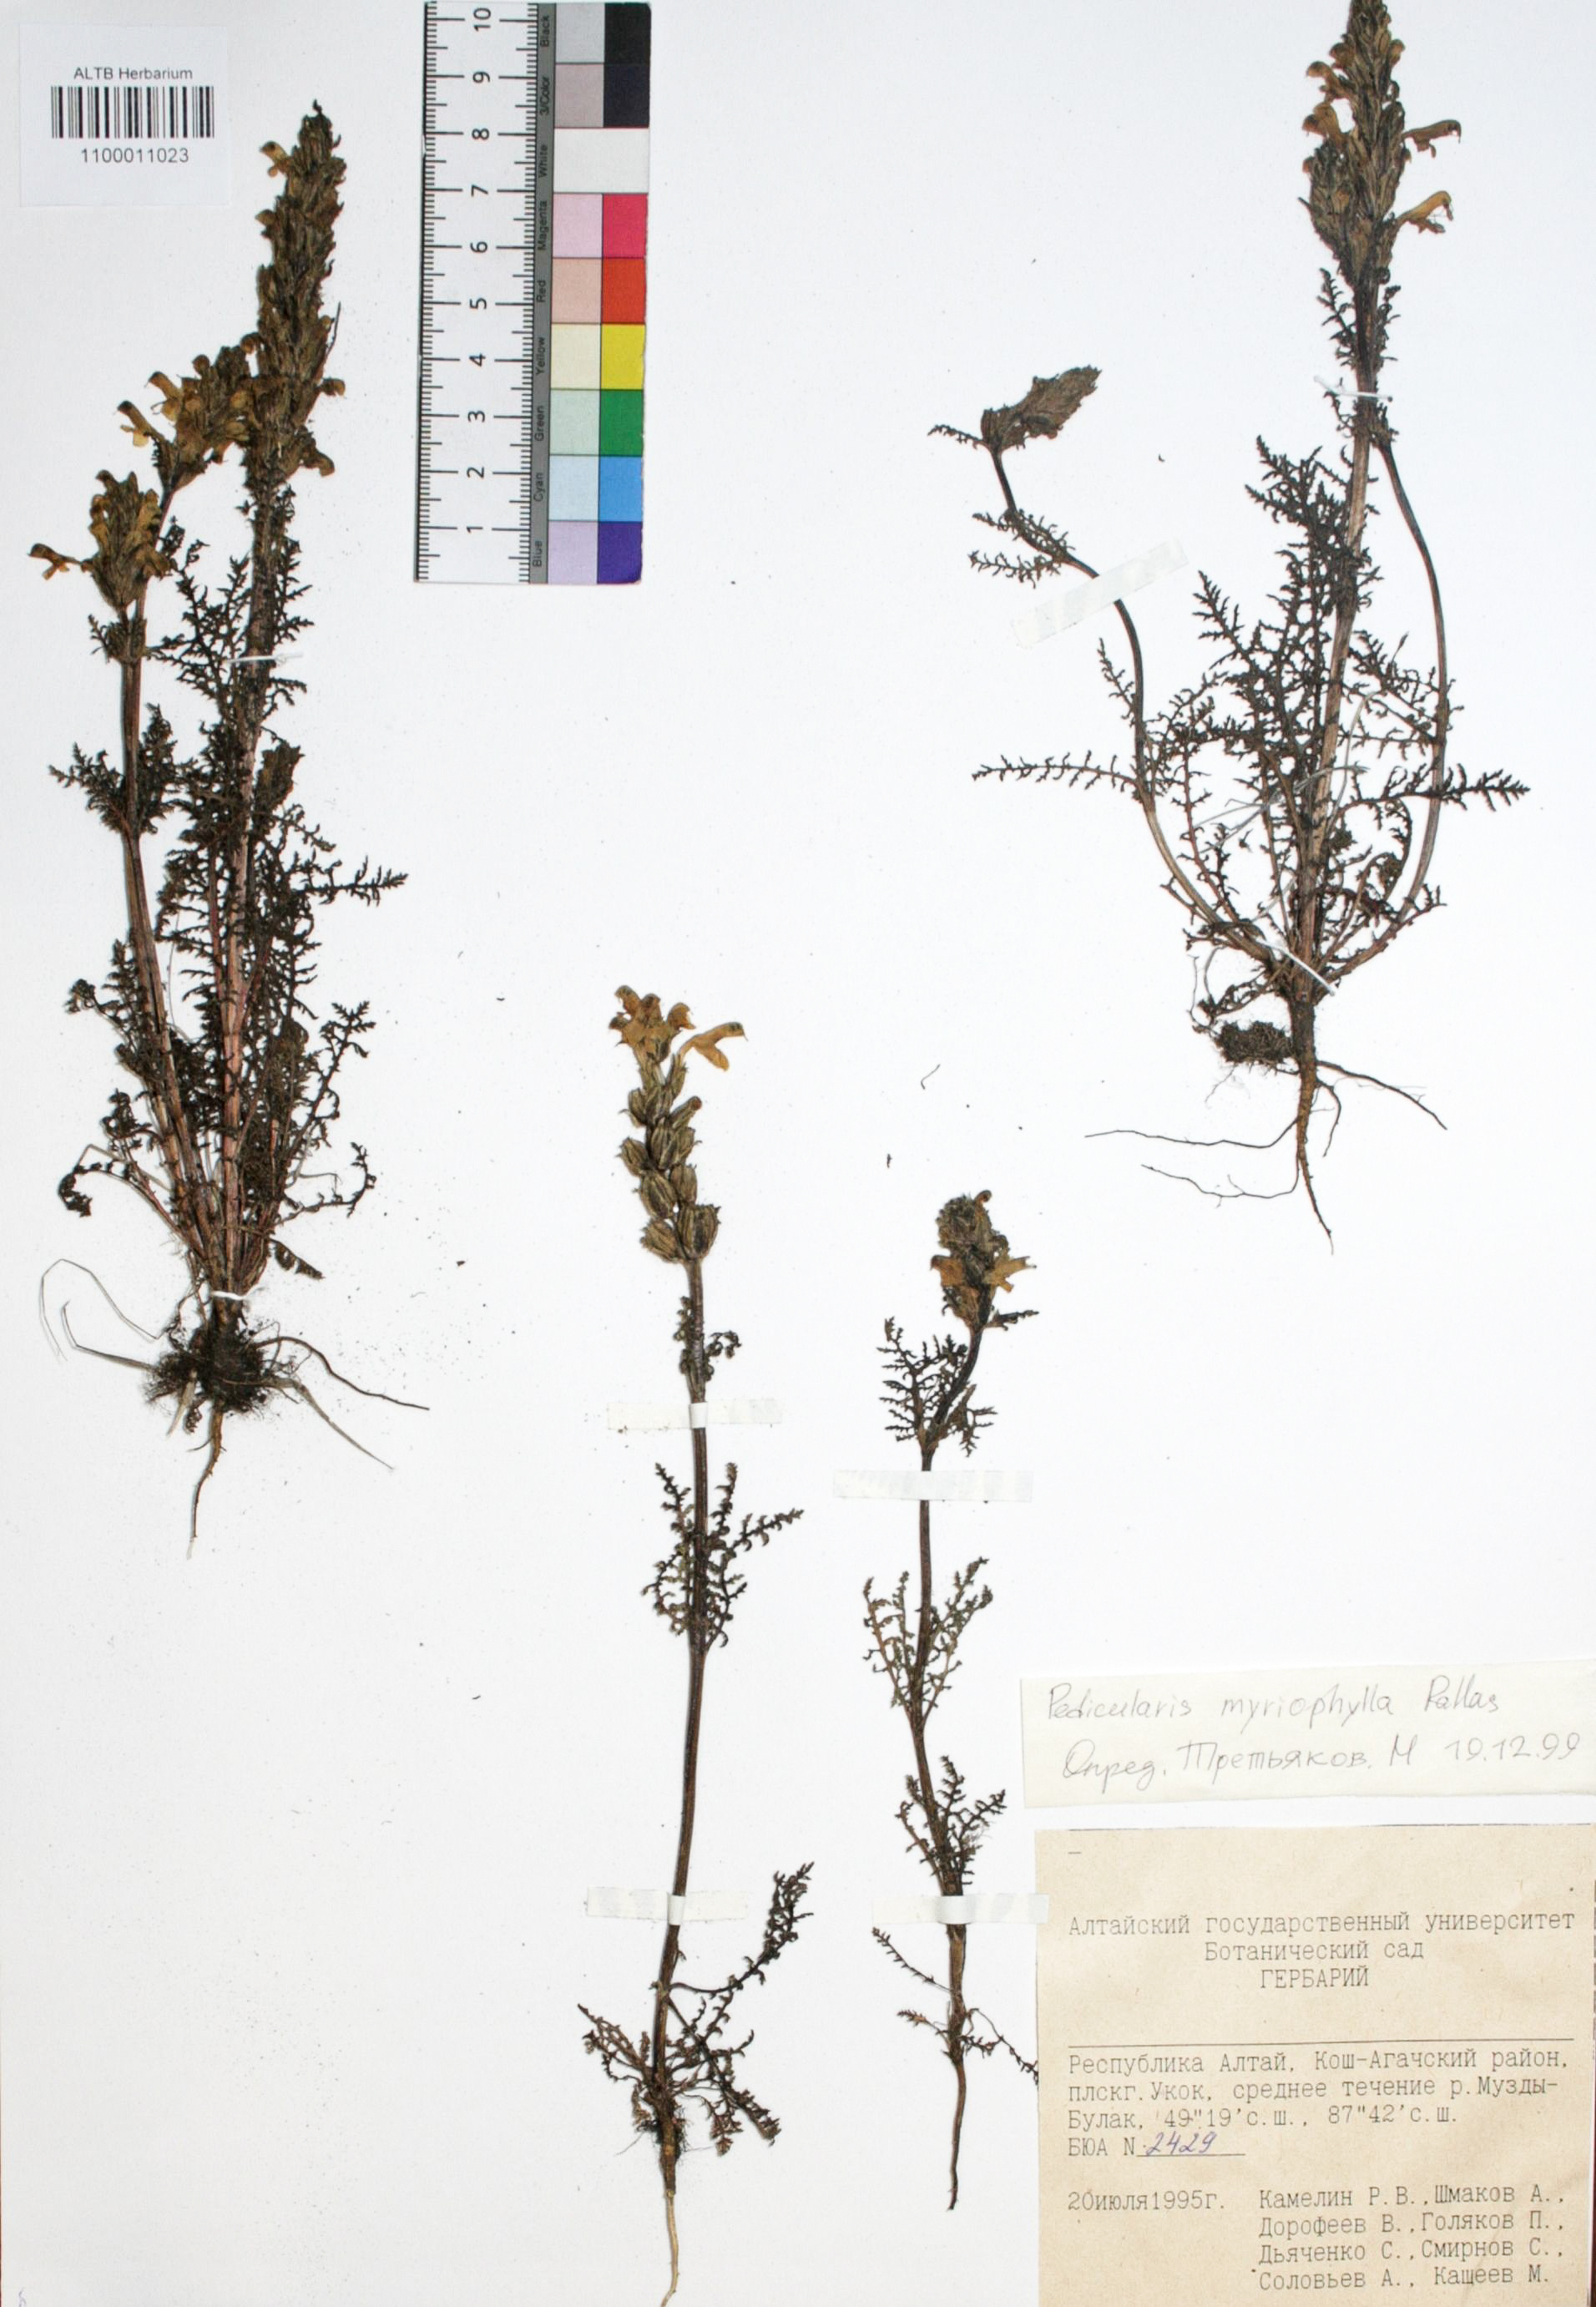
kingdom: Plantae
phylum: Tracheophyta
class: Magnoliopsida
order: Lamiales
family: Orobanchaceae
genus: Pedicularis
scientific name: Pedicularis myriophylla
